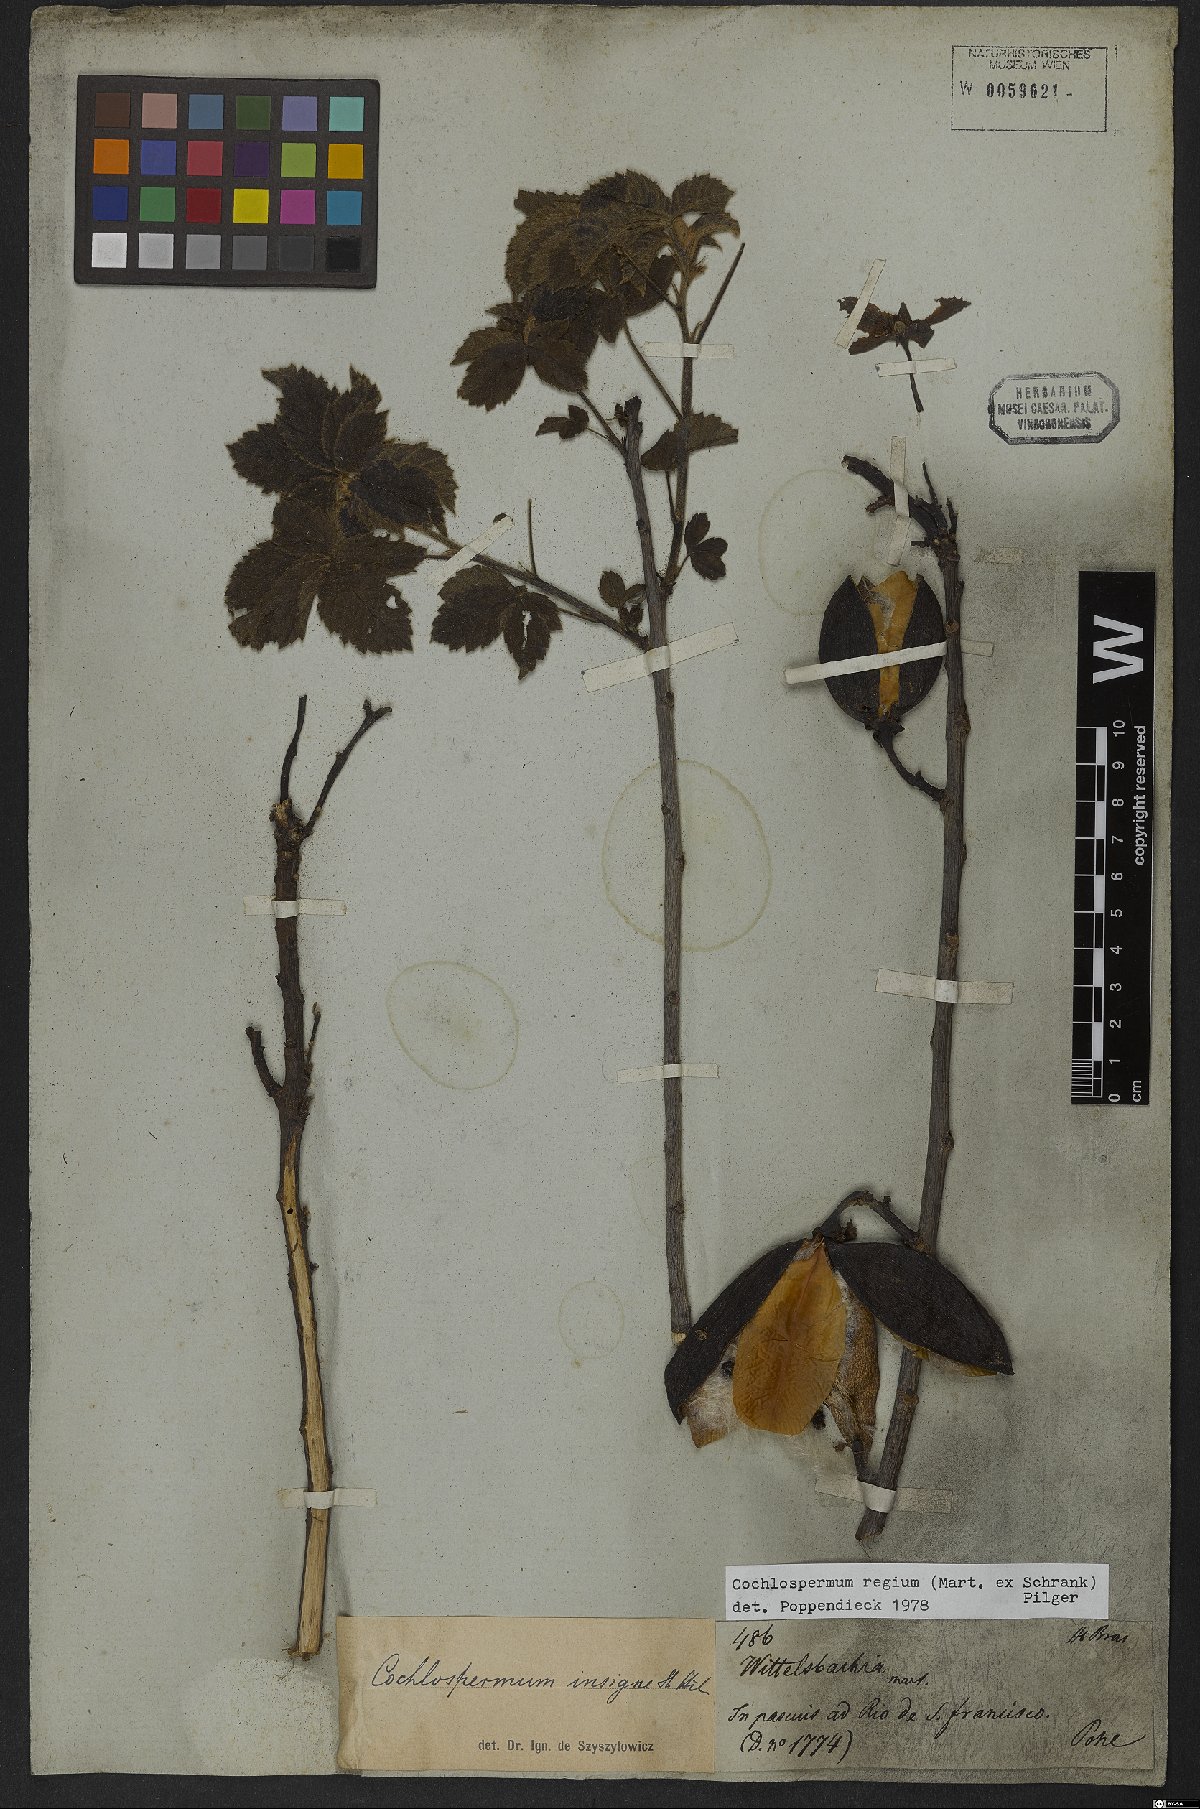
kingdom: Plantae
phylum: Tracheophyta
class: Magnoliopsida
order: Malvales
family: Cochlospermaceae
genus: Cochlospermum
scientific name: Cochlospermum regium
